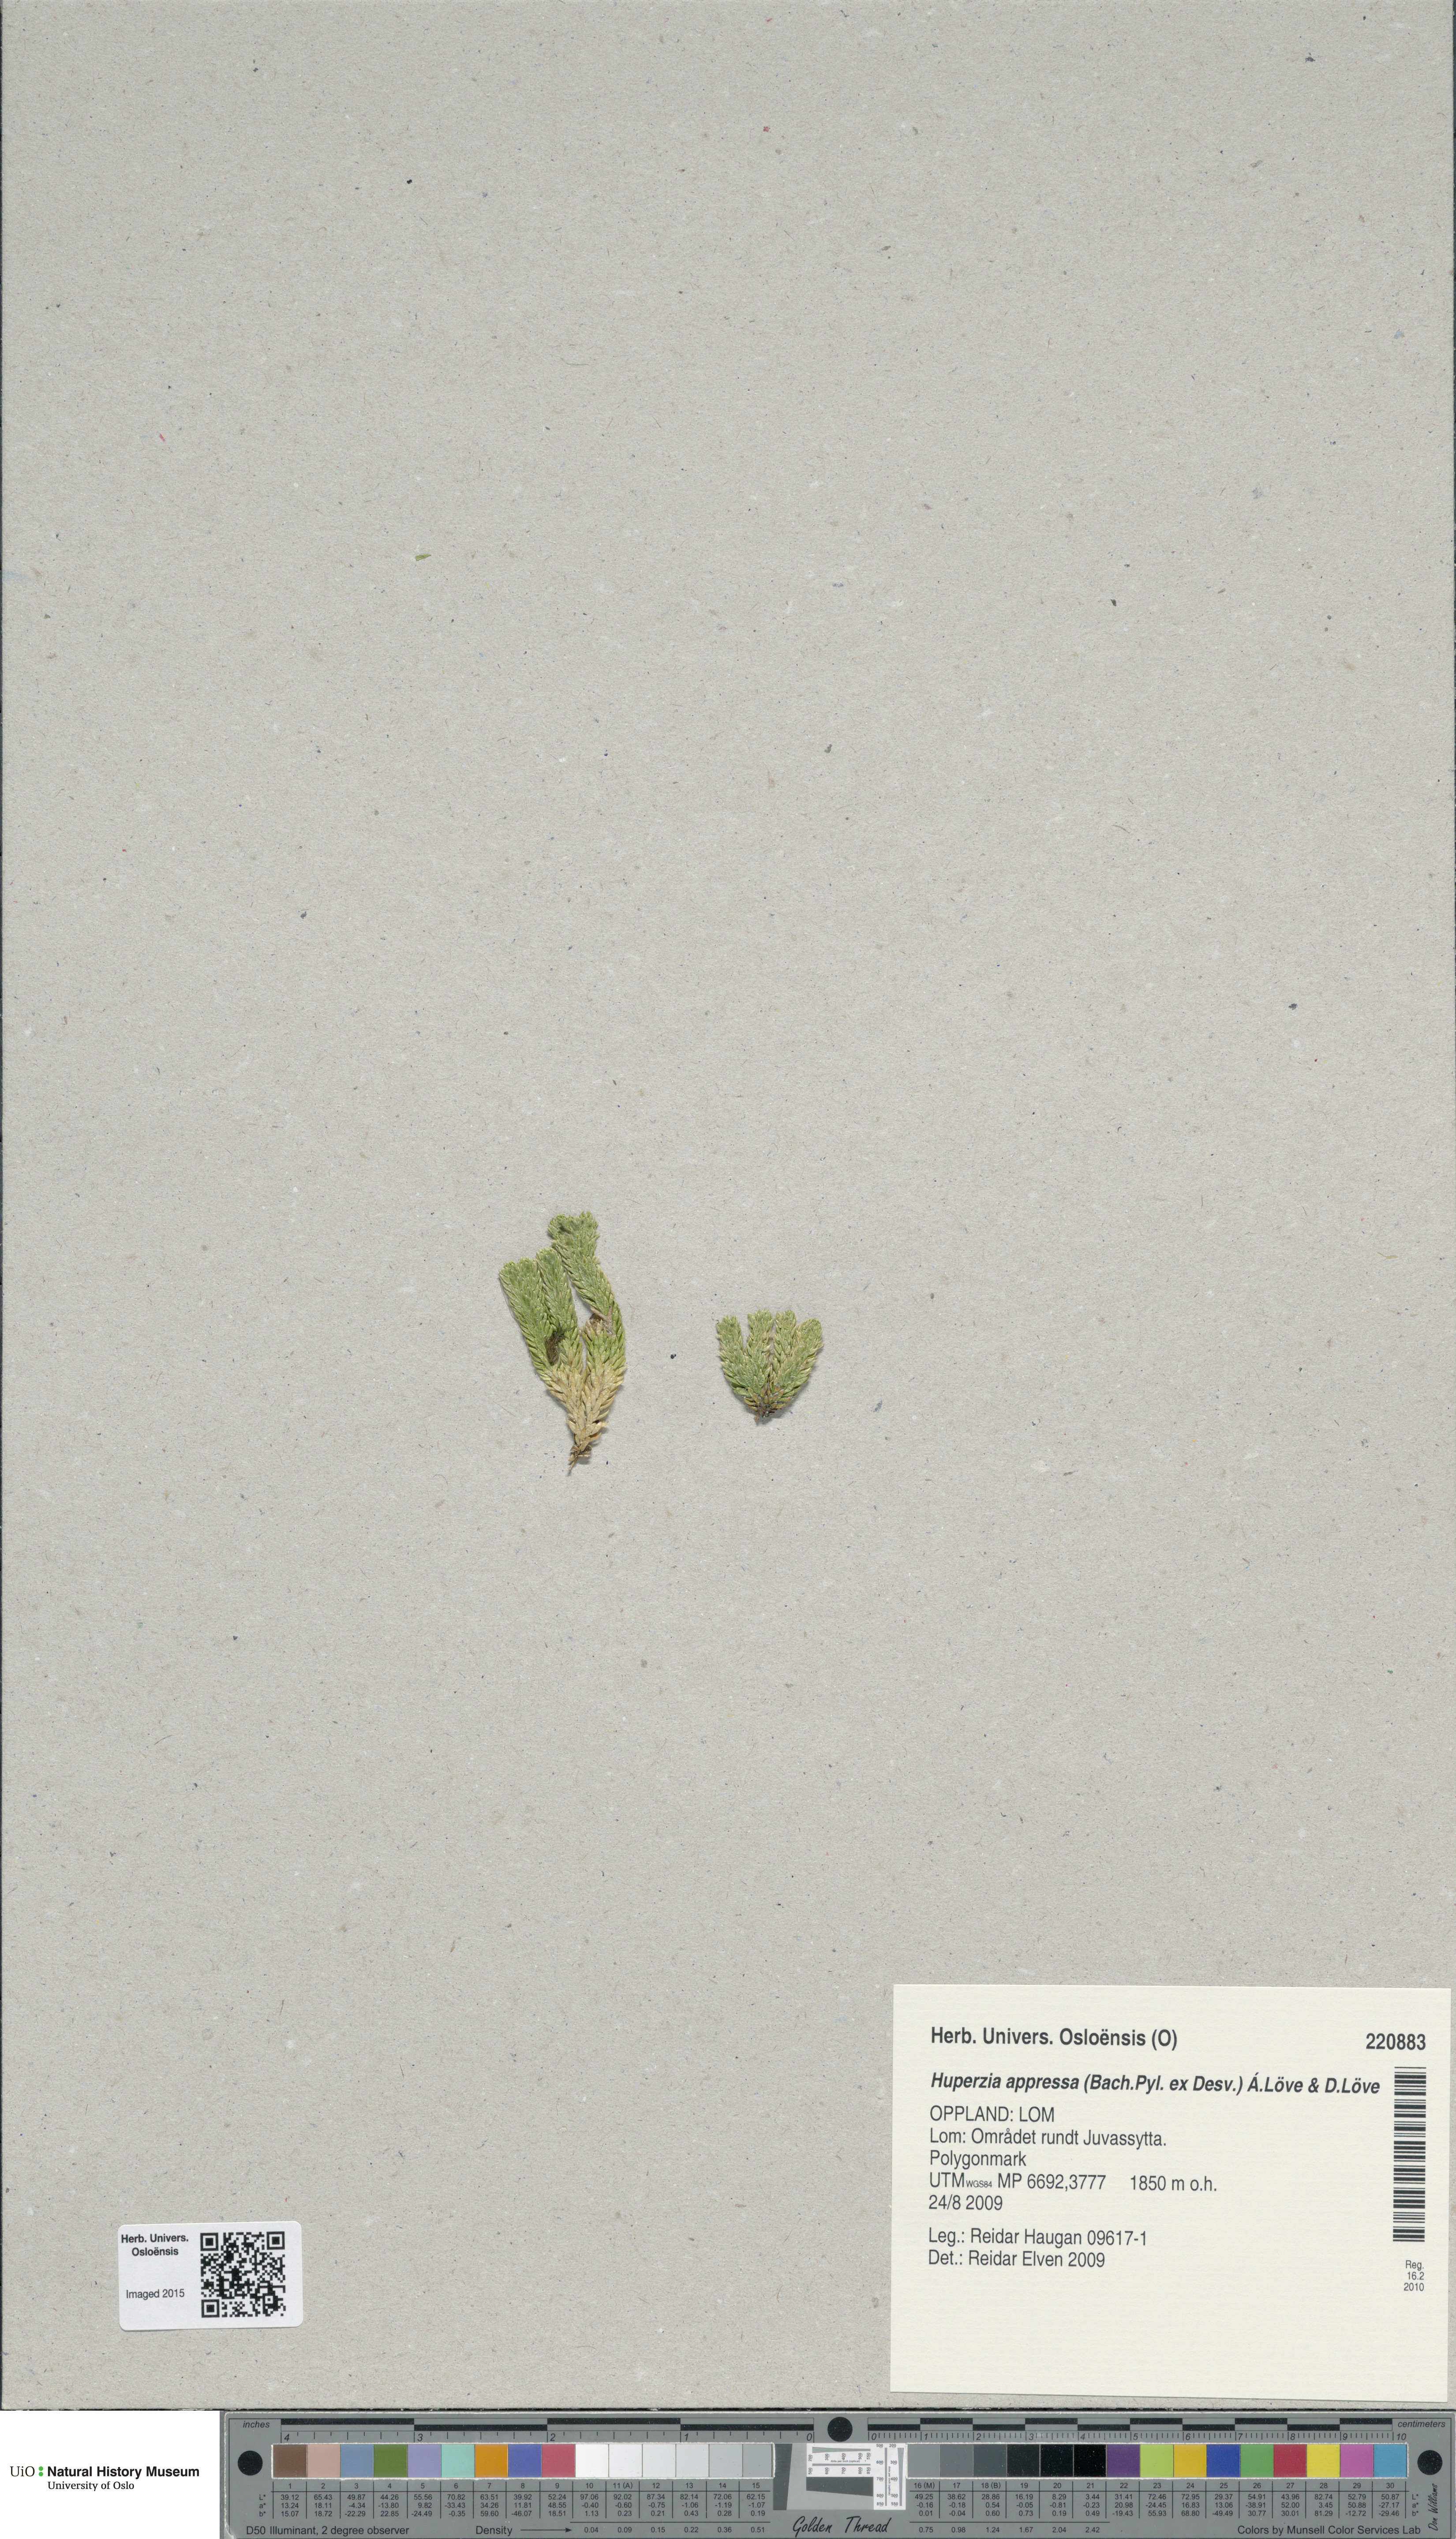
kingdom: Plantae
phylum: Tracheophyta
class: Lycopodiopsida
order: Lycopodiales
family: Lycopodiaceae
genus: Huperzia
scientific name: Huperzia selago
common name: Northern firmoss
